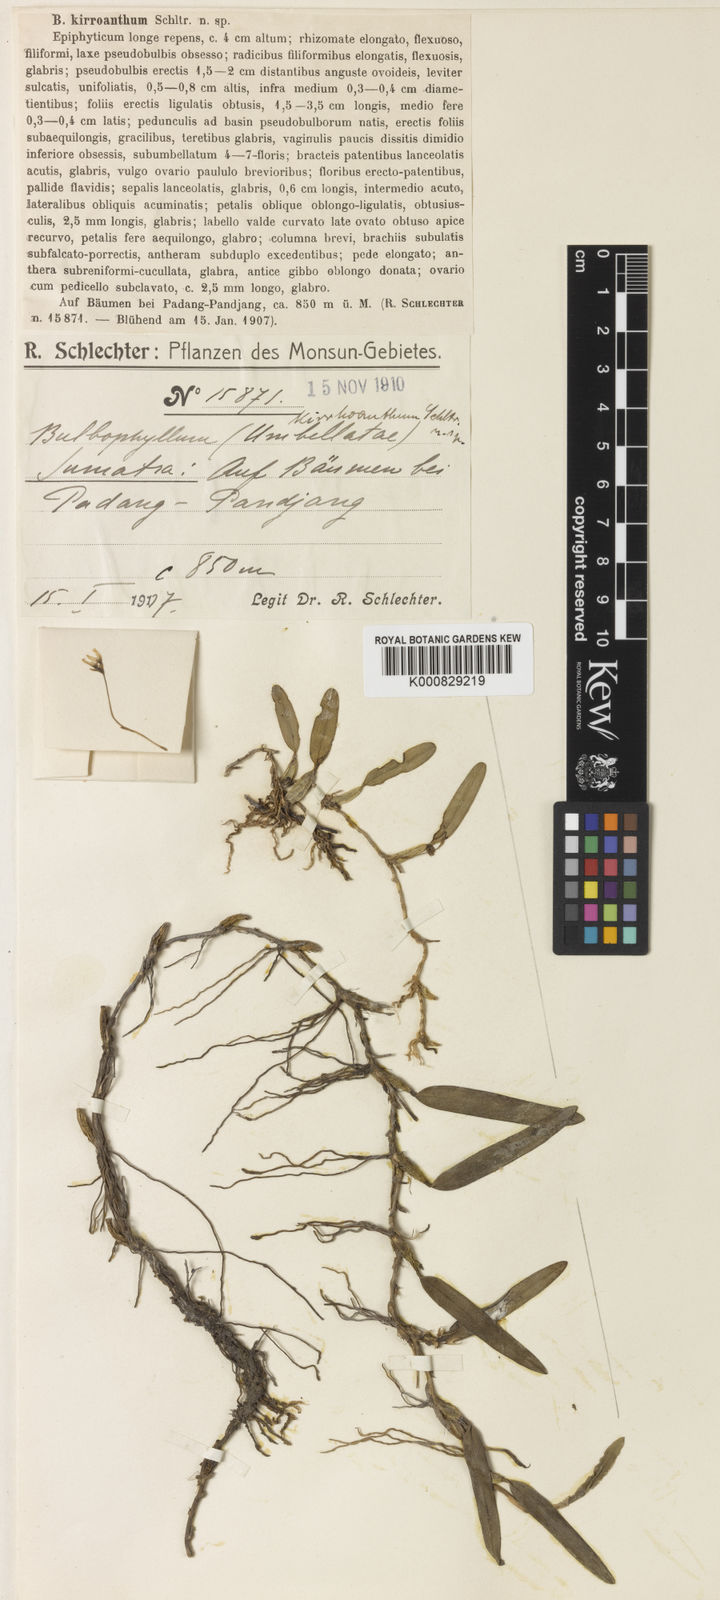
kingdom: Plantae
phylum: Tracheophyta
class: Liliopsida
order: Asparagales
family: Orchidaceae
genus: Bulbophyllum
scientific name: Bulbophyllum kirroanthum
